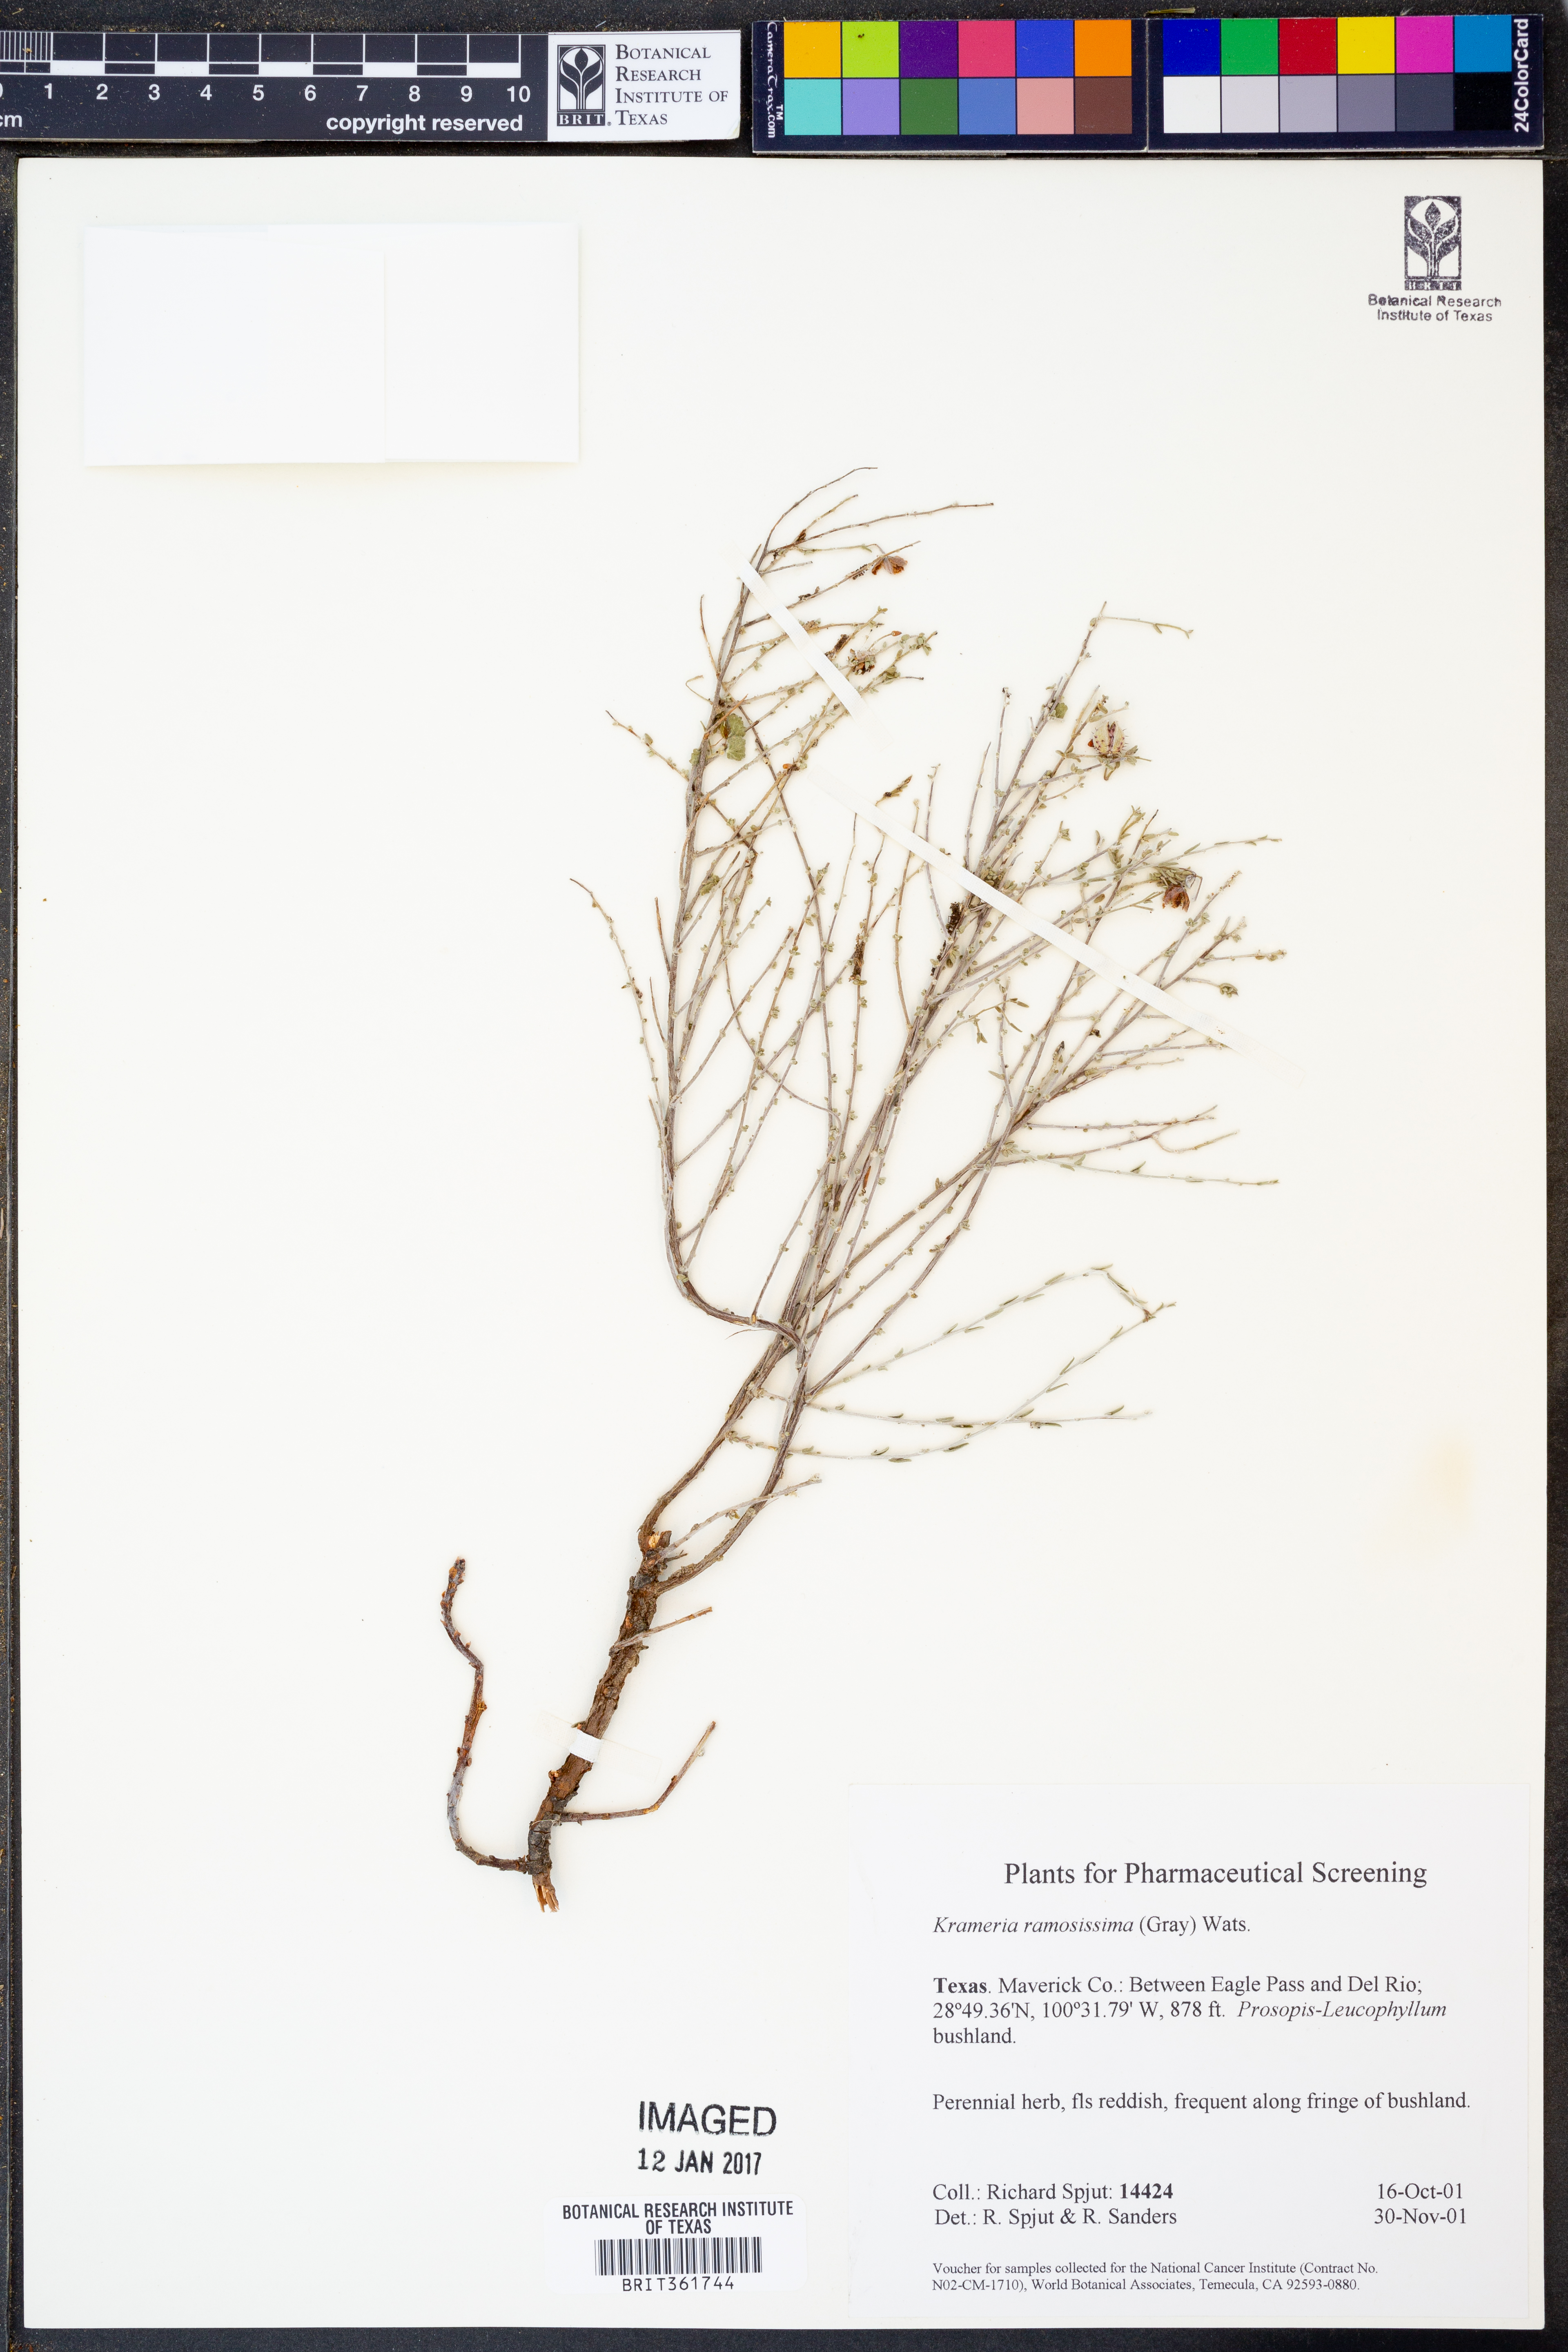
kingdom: Plantae
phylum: Tracheophyta
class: Magnoliopsida
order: Zygophyllales
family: Krameriaceae
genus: Krameria
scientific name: Krameria ramosissima
